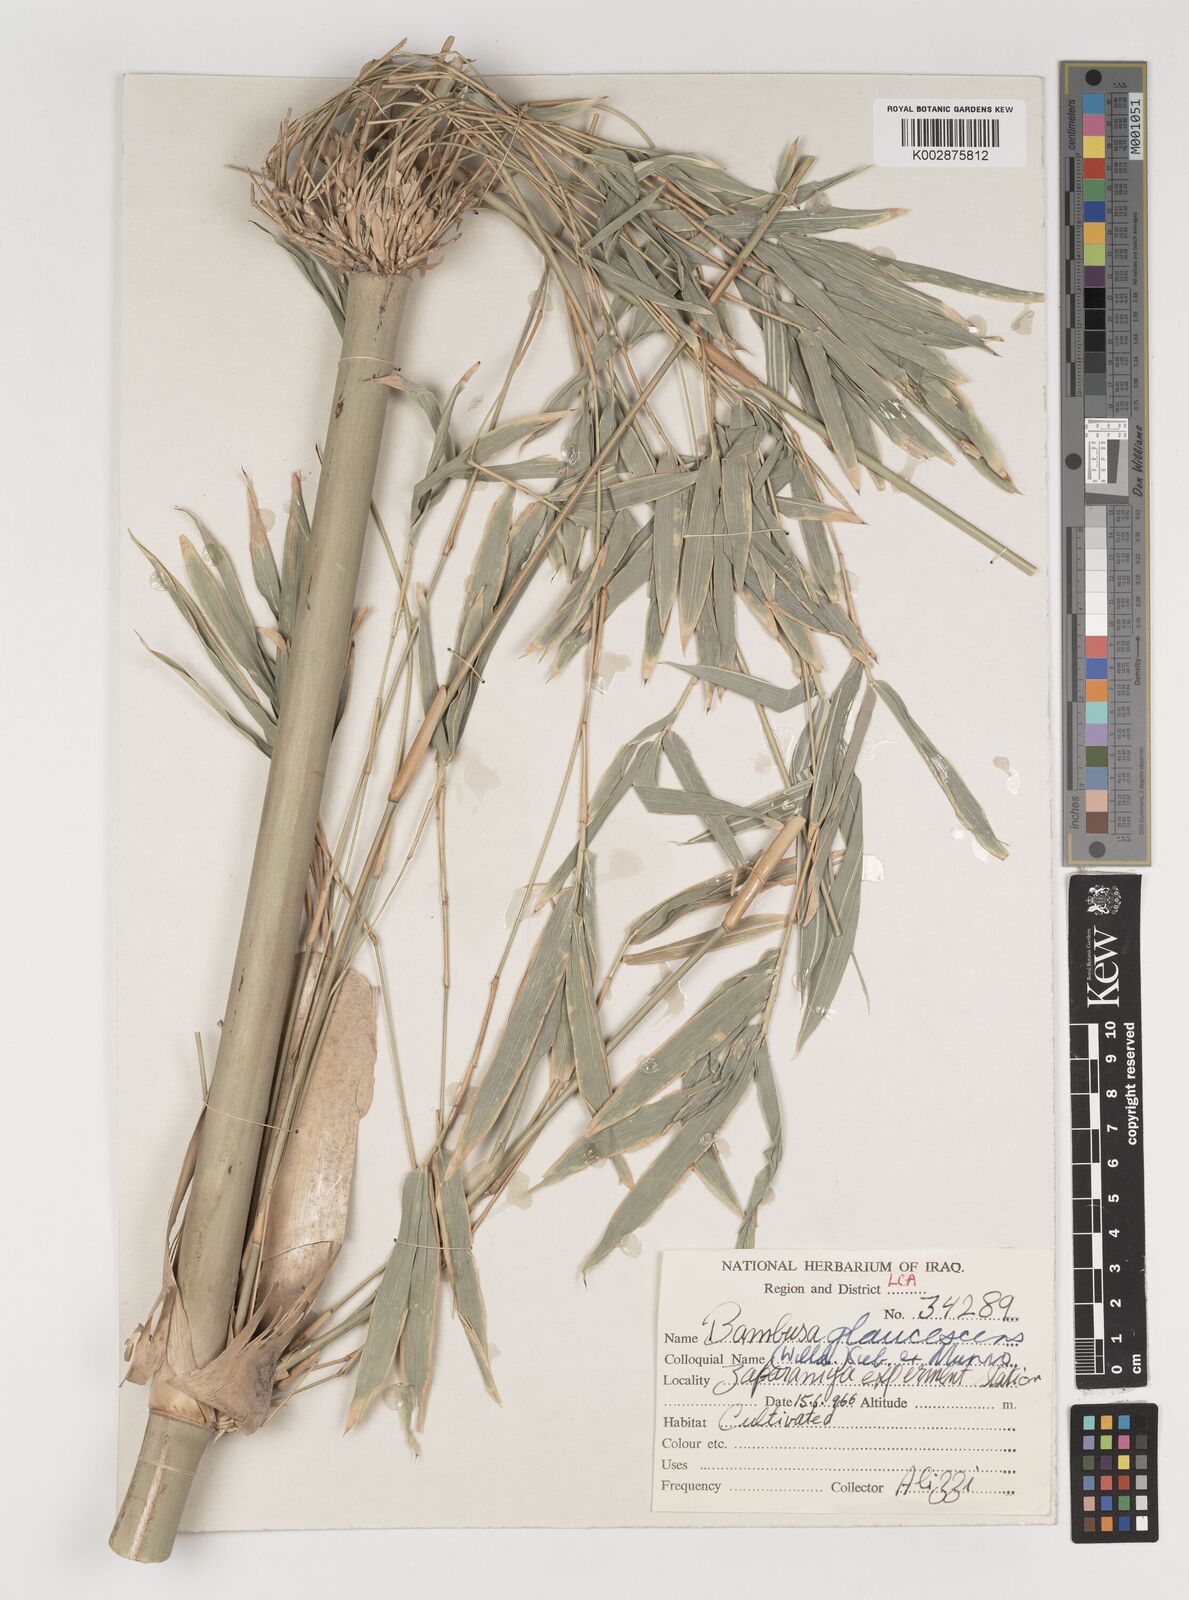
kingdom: Plantae
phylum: Tracheophyta
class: Liliopsida
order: Poales
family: Poaceae
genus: Bambusa
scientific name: Bambusa multiplex
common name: Hedge bamboo
